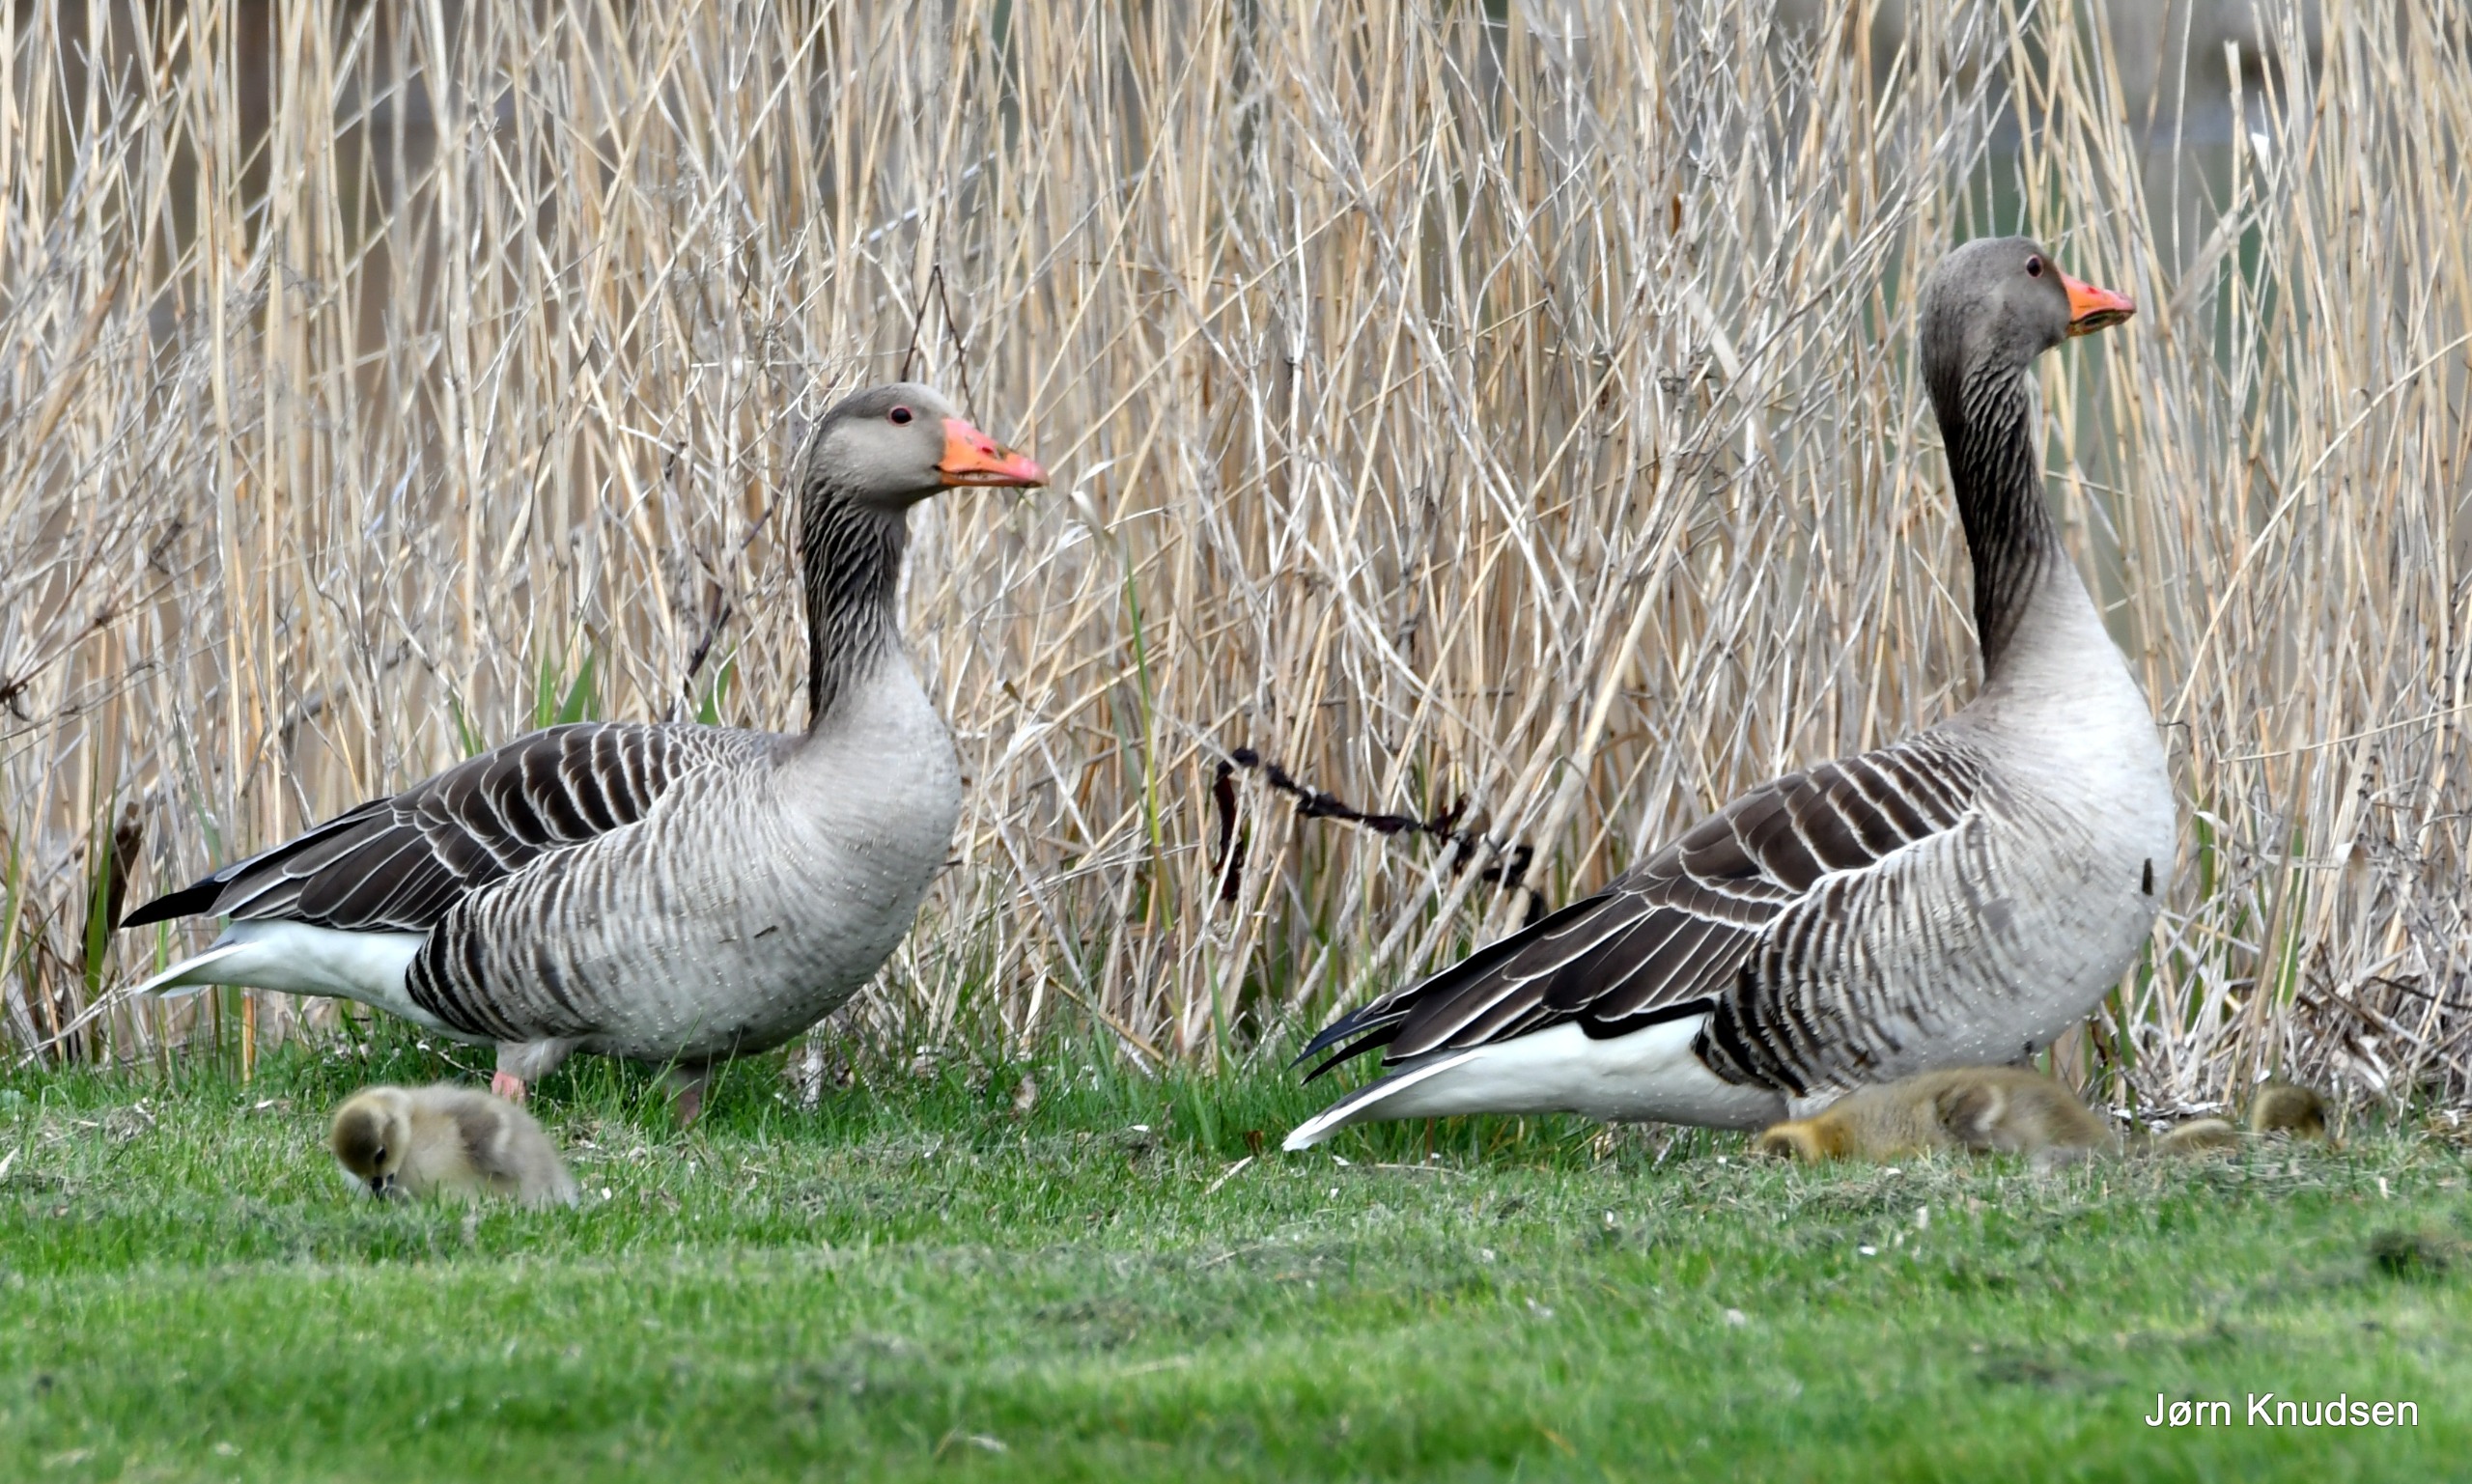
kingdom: Animalia
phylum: Chordata
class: Aves
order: Anseriformes
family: Anatidae
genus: Anser
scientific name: Anser anser
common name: Grågås
